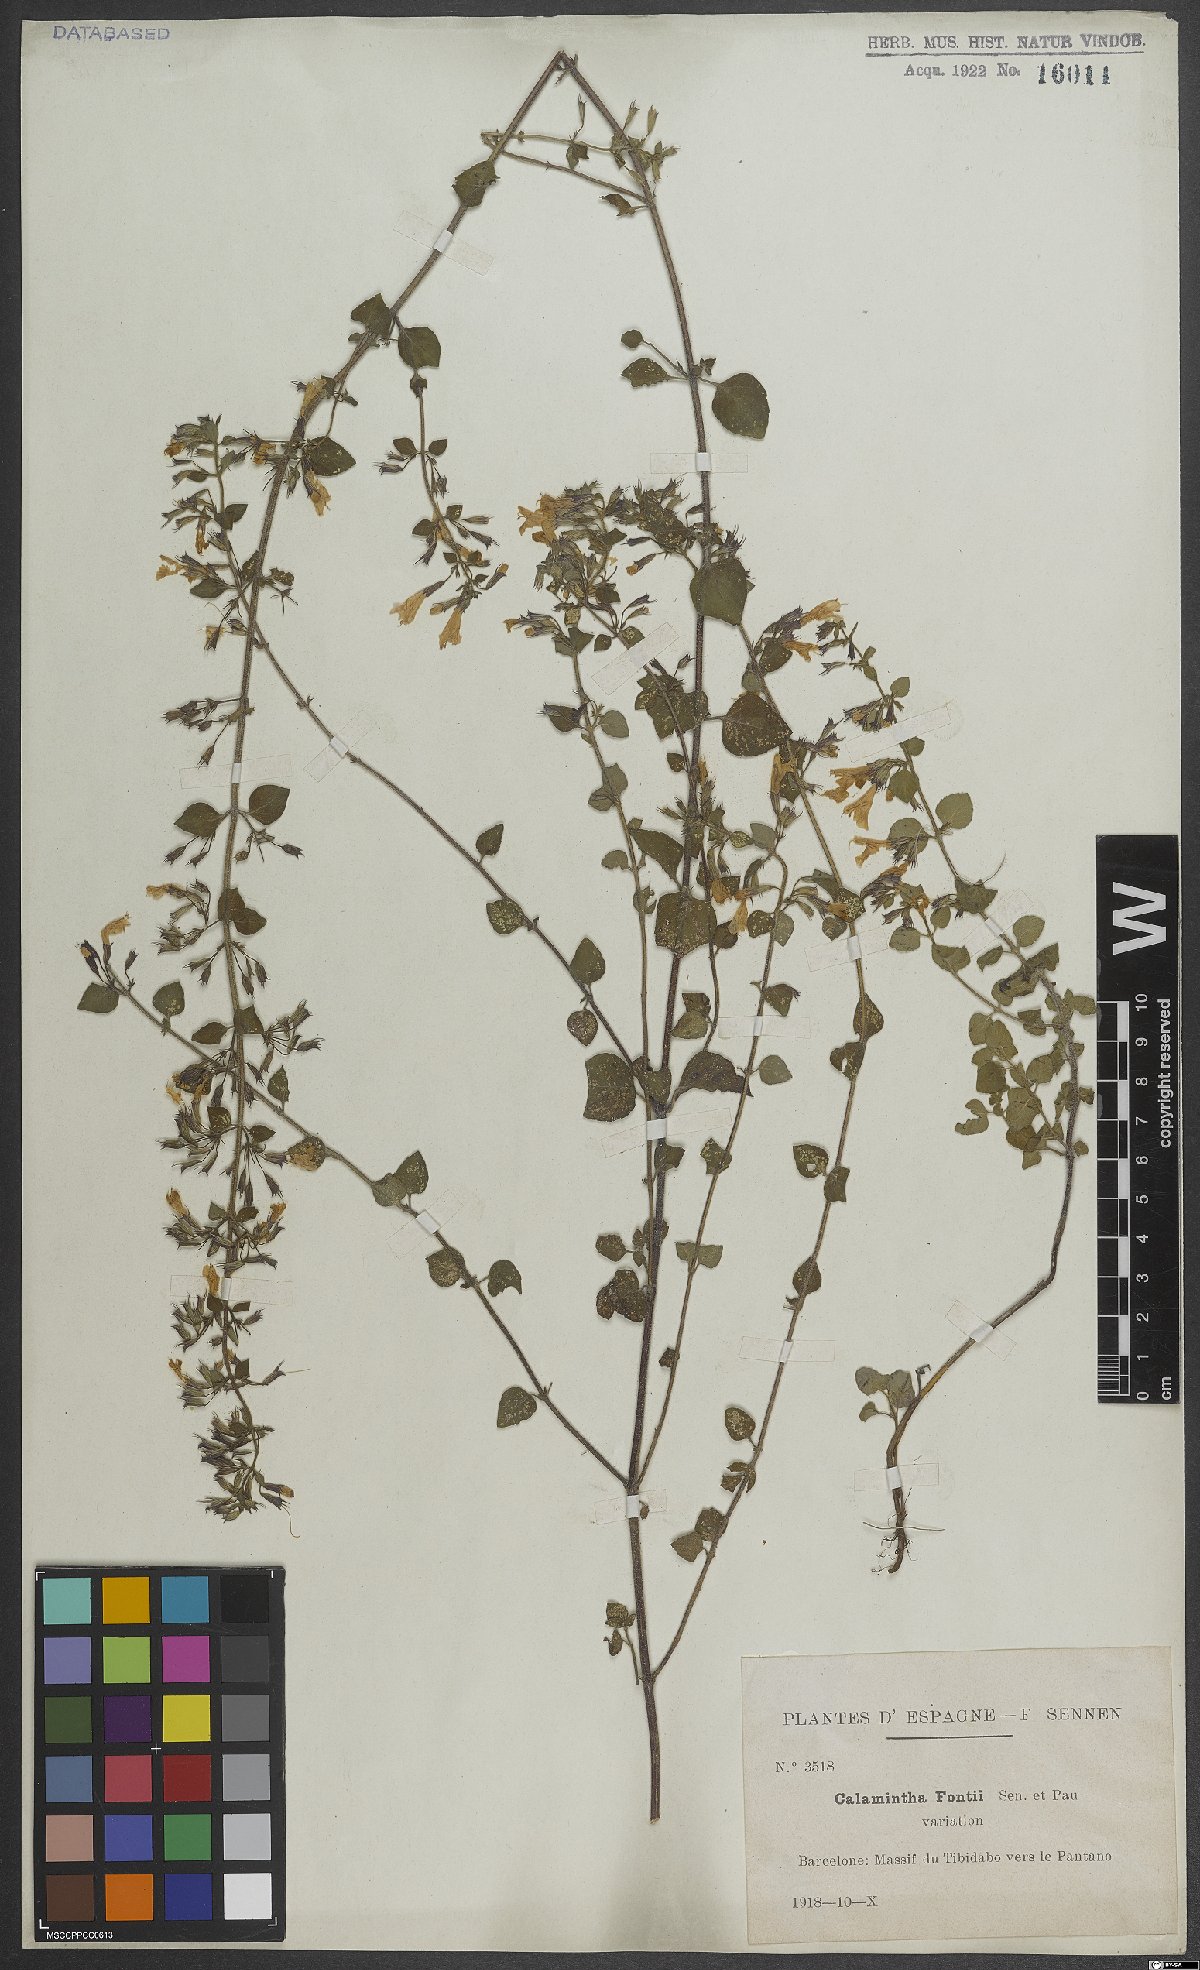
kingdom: Plantae
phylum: Tracheophyta
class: Magnoliopsida
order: Lamiales
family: Lamiaceae
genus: Clinopodium
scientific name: Clinopodium nepeta
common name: Lesser calamint
